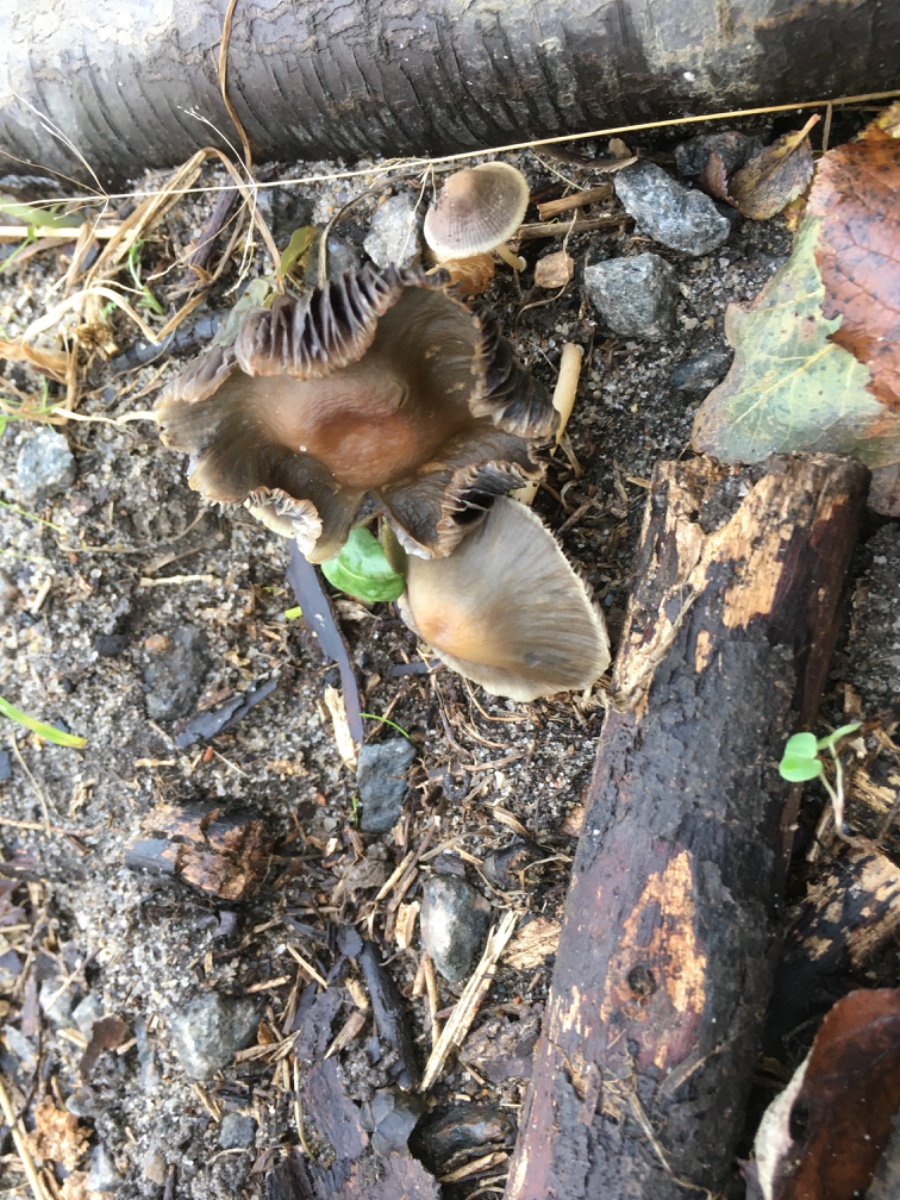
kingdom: Fungi
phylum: Basidiomycota
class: Agaricomycetes
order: Agaricales
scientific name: Agaricales
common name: champignonordenen
